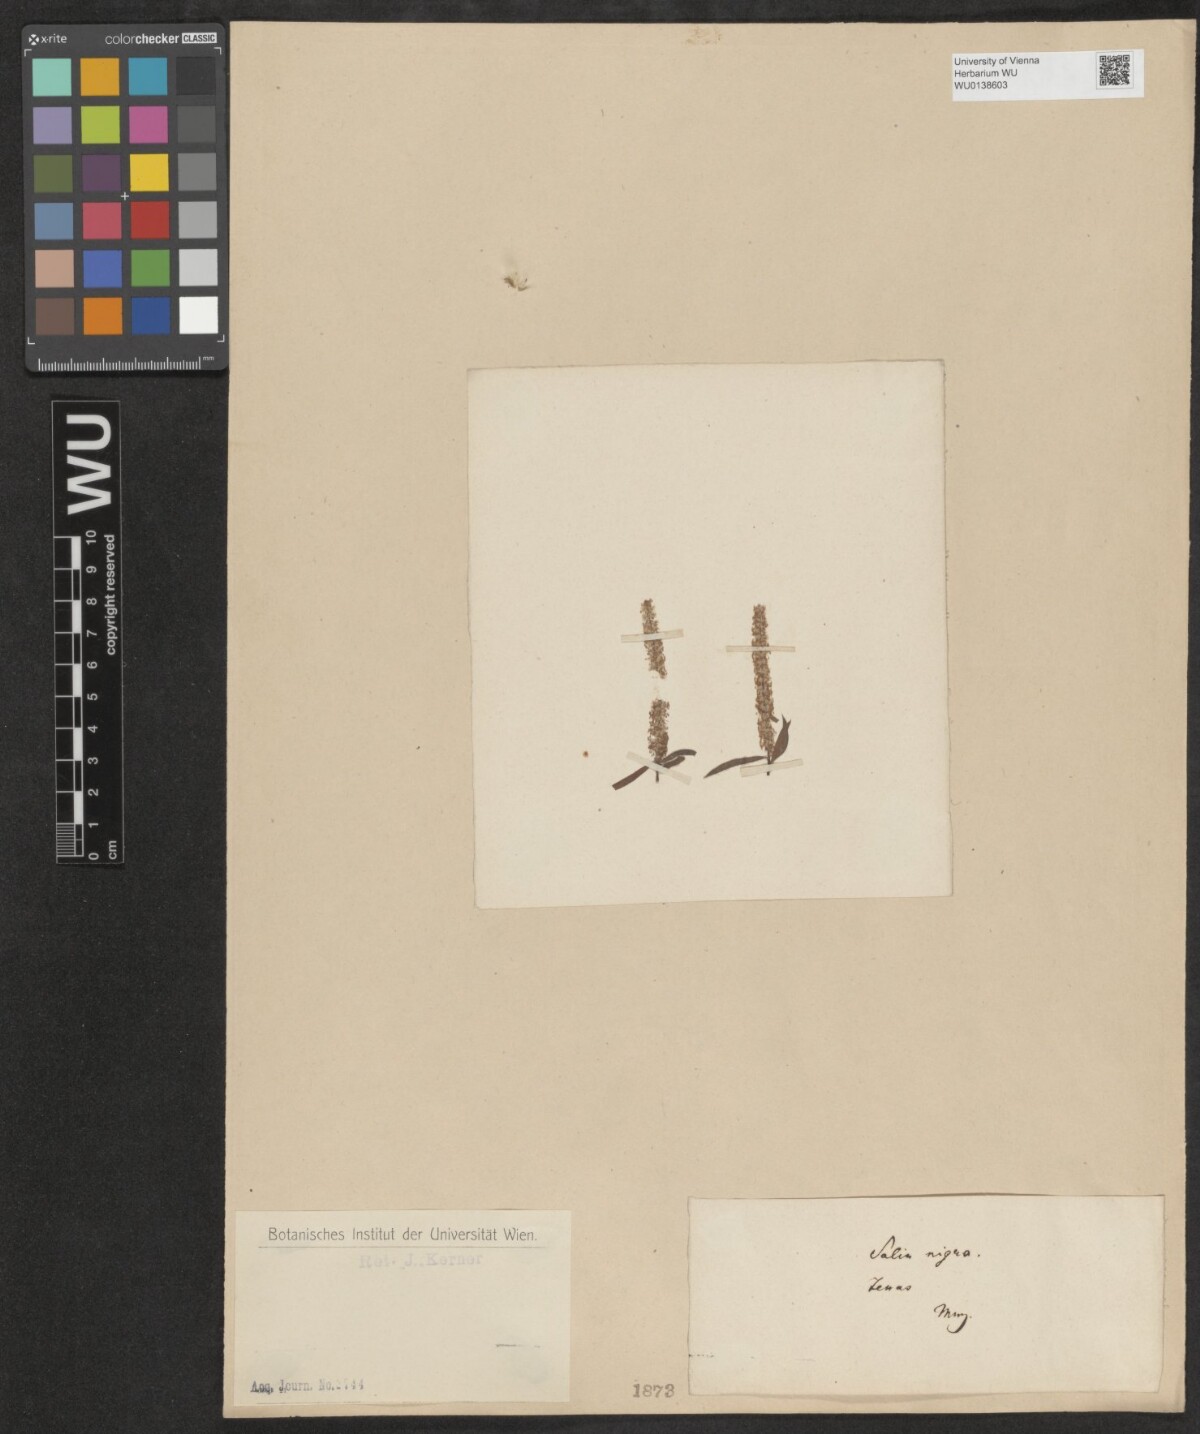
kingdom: Plantae
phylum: Tracheophyta
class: Magnoliopsida
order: Malpighiales
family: Salicaceae
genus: Salix
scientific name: Salix nigra
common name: Black willow
